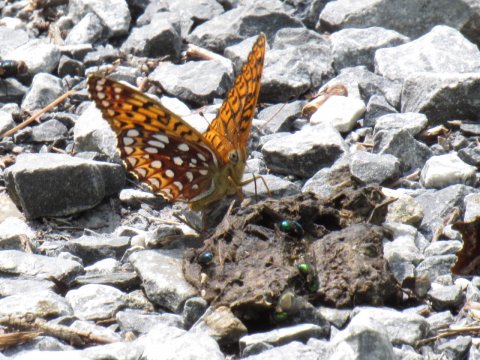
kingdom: Animalia
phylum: Arthropoda
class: Insecta
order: Lepidoptera
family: Nymphalidae
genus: Speyeria
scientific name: Speyeria atlantis
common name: Atlantis Fritillary
